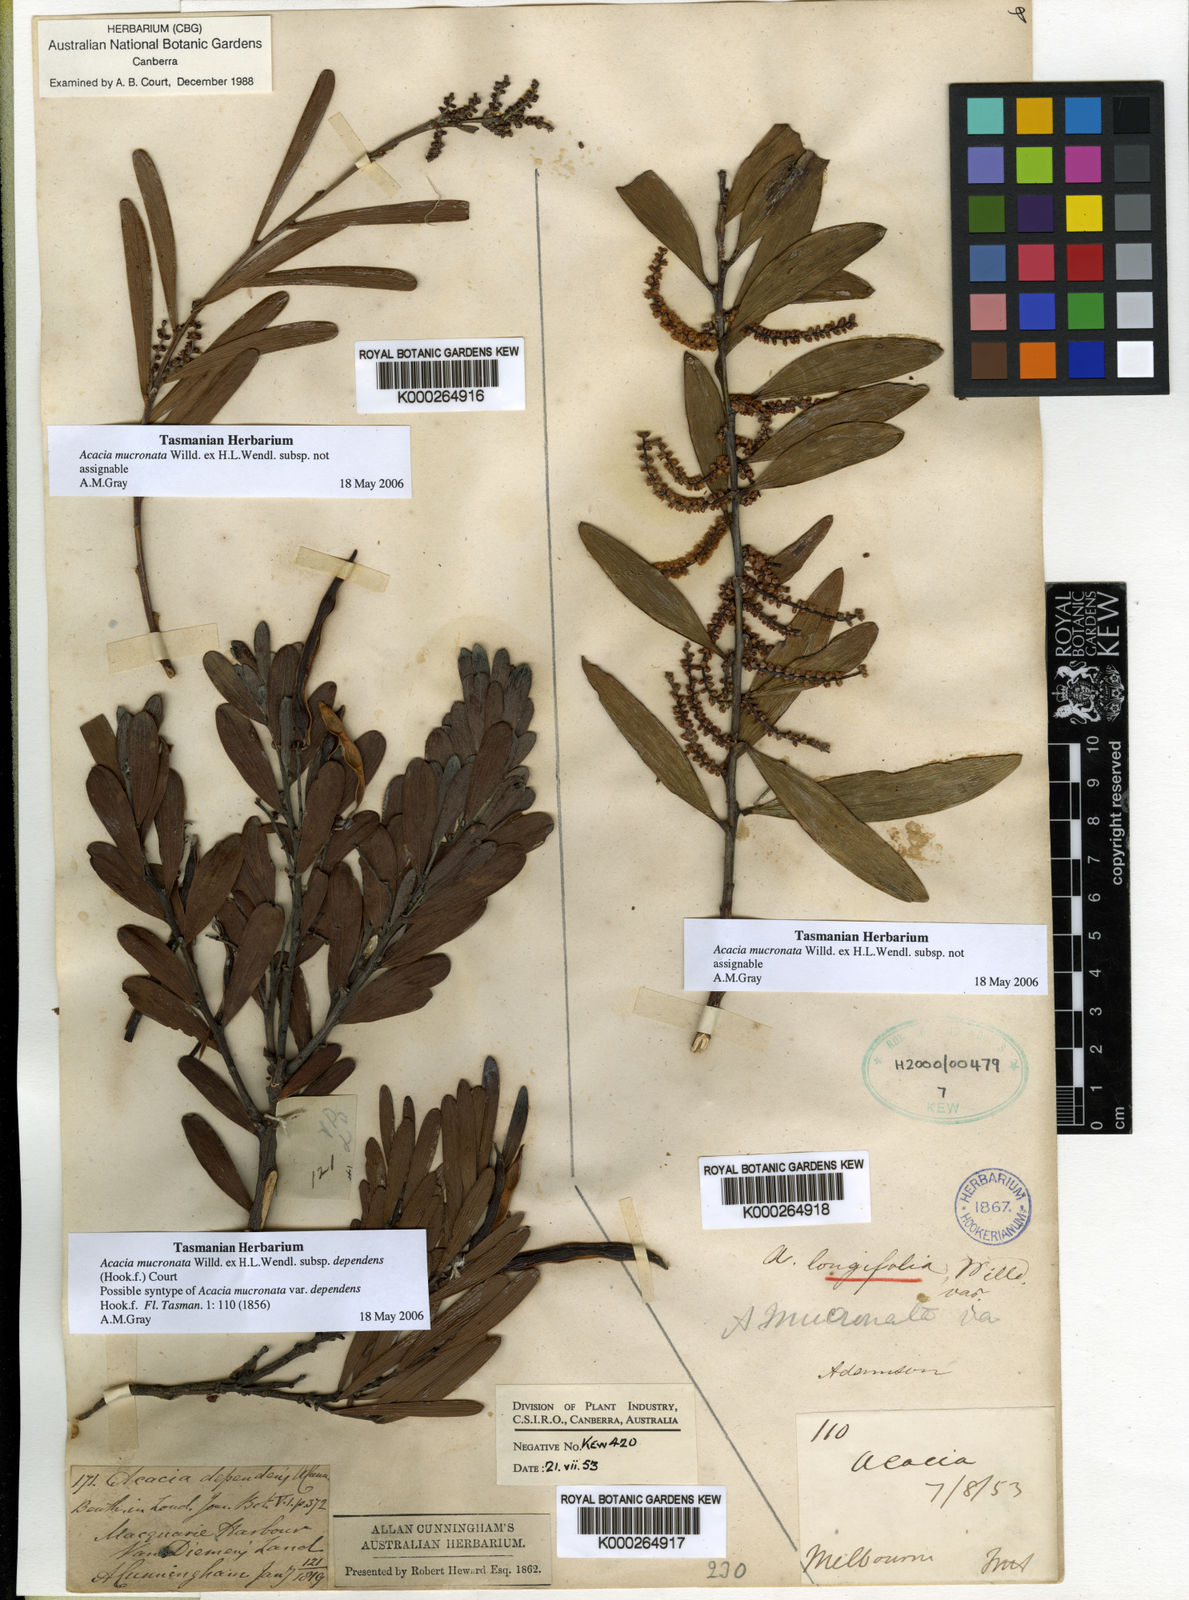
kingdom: Plantae
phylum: Tracheophyta
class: Magnoliopsida
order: Fabales
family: Fabaceae
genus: Acacia
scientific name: Acacia mucronata
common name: Variable sallow wattle
